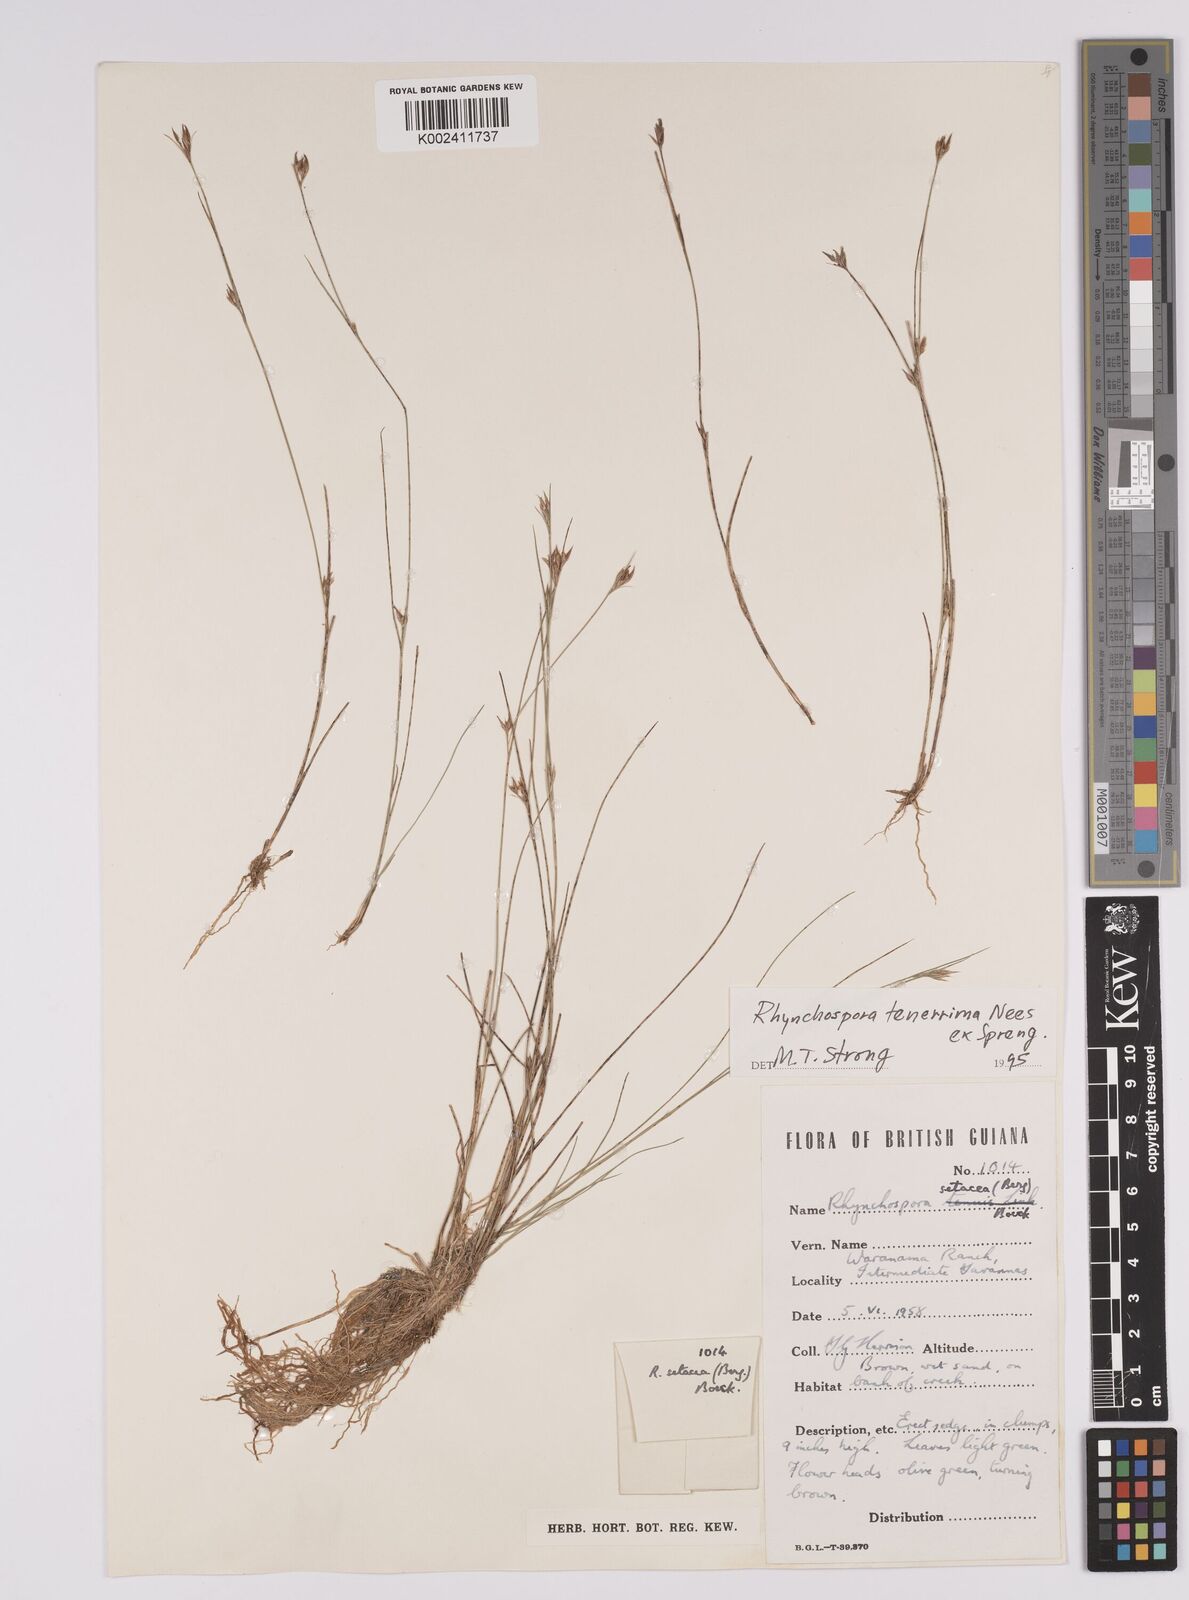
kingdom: Plantae
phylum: Tracheophyta
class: Liliopsida
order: Poales
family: Cyperaceae
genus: Rhynchospora
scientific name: Rhynchospora tenerrima
